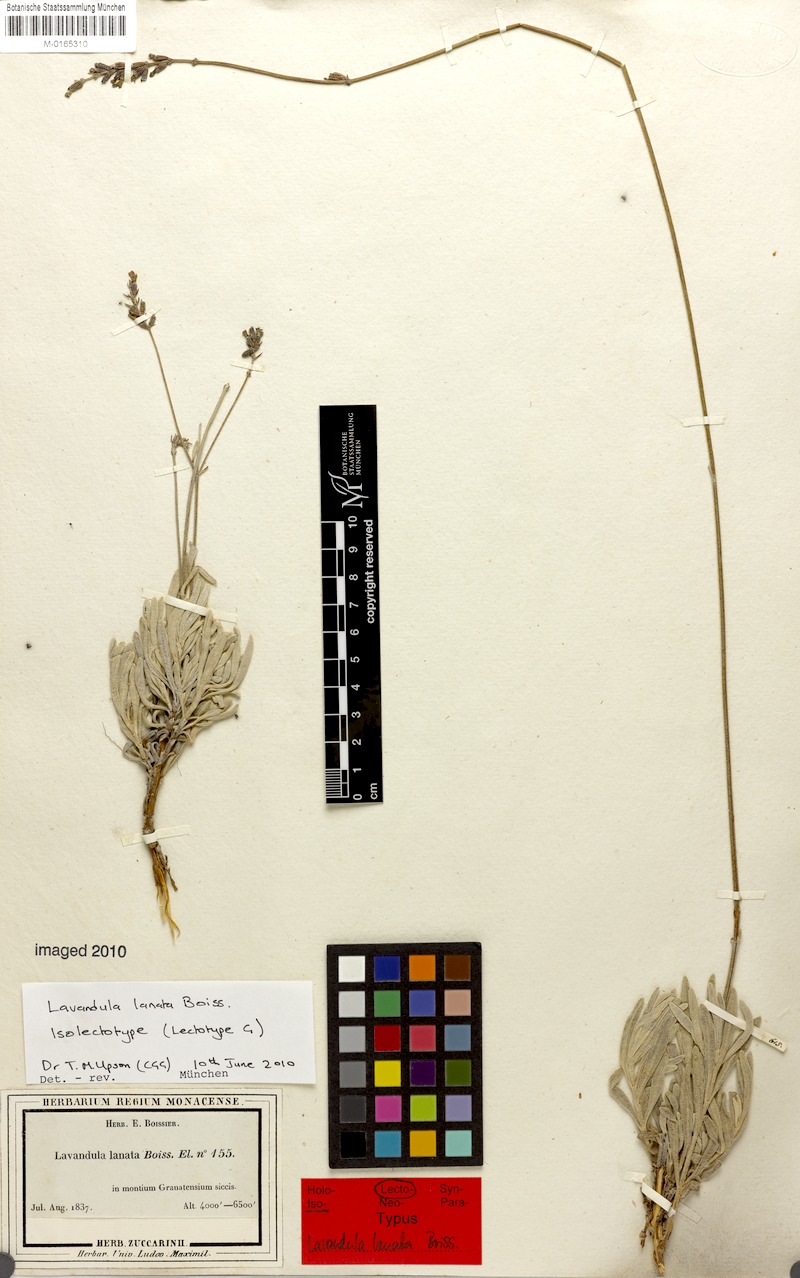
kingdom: Plantae
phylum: Tracheophyta
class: Magnoliopsida
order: Lamiales
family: Lamiaceae
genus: Lavandula
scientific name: Lavandula lanata
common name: Woolly lavender
